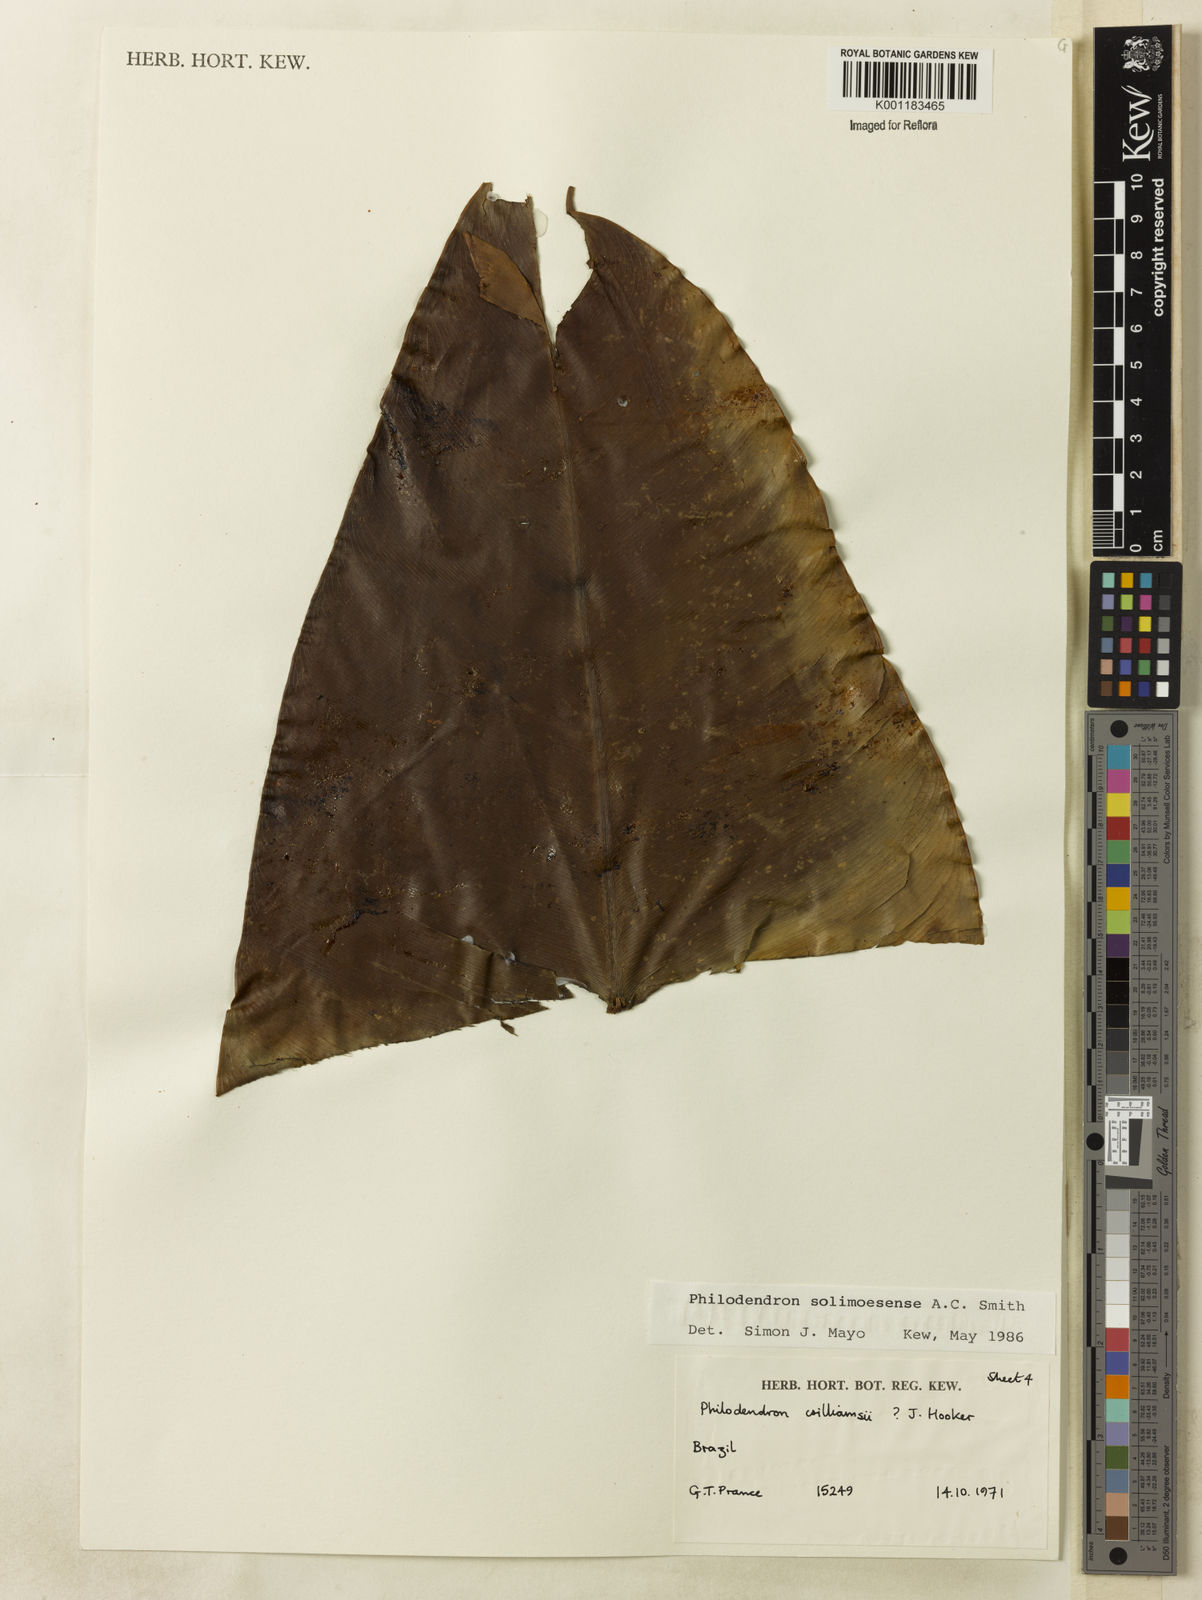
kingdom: Plantae
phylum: Tracheophyta
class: Liliopsida
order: Alismatales
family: Araceae
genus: Thaumatophyllum
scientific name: Thaumatophyllum solimoesense
